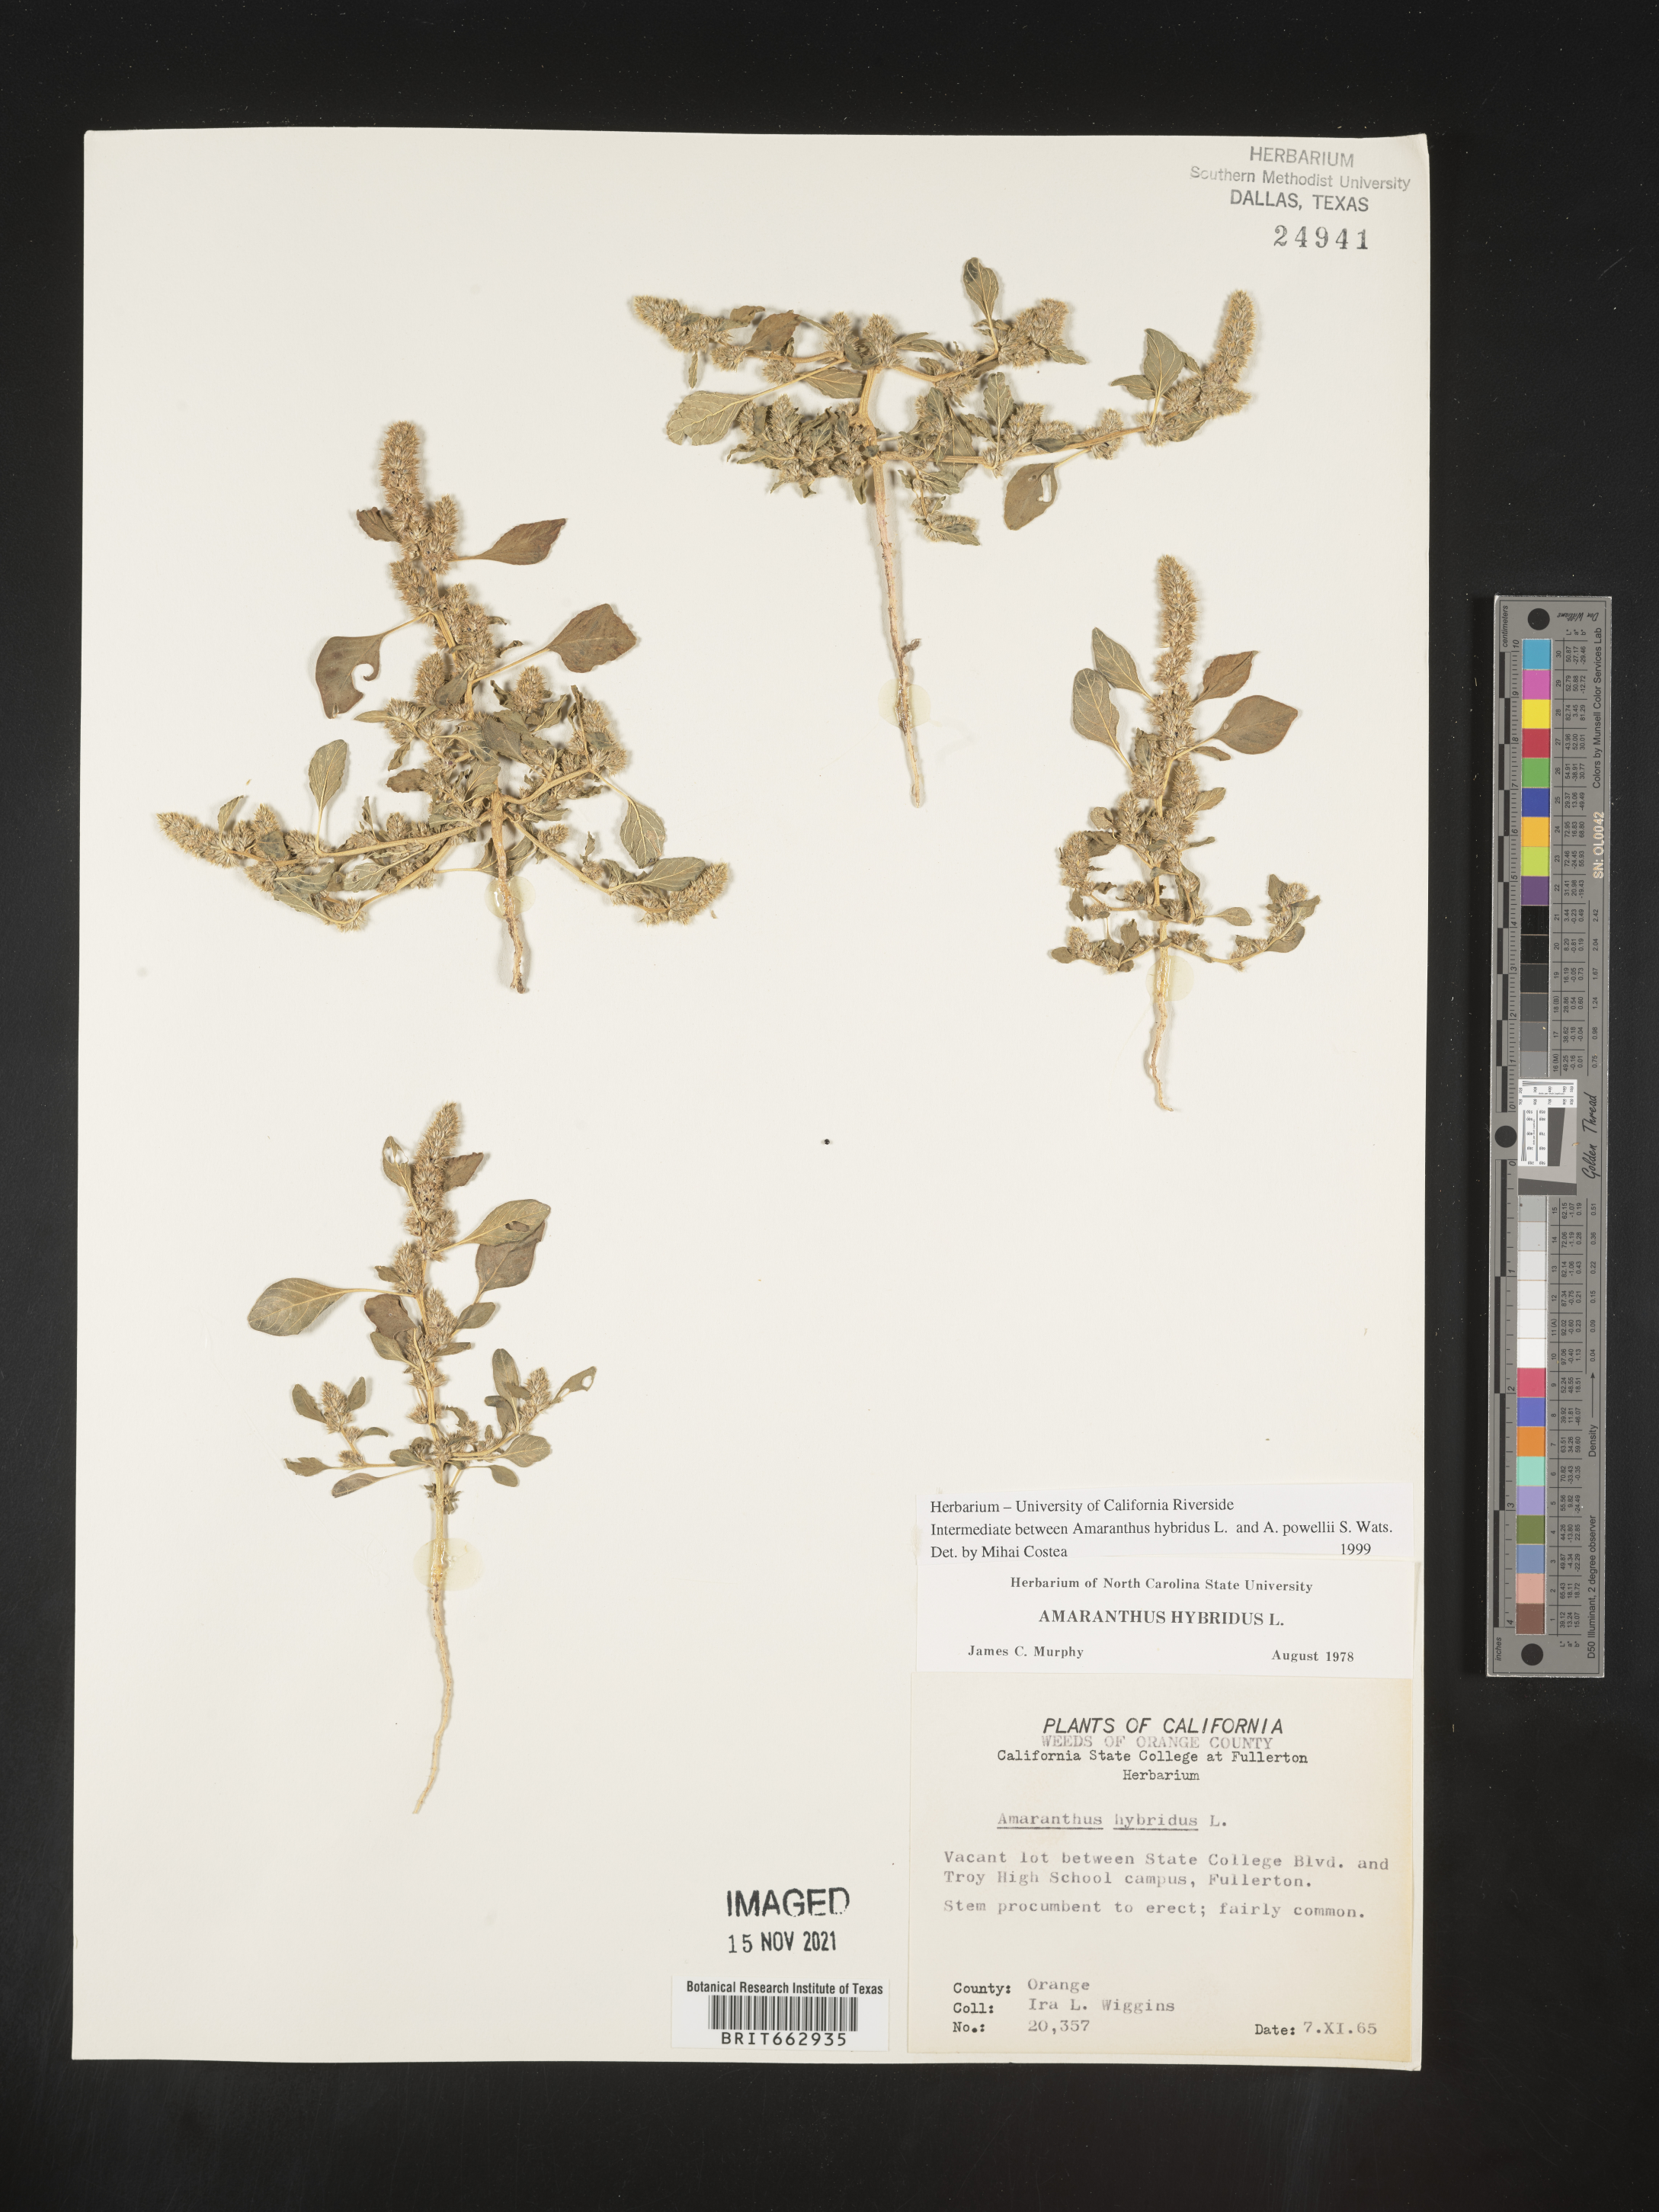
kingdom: Plantae
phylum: Tracheophyta
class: Magnoliopsida
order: Caryophyllales
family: Amaranthaceae
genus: Amaranthus
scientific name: Amaranthus hybridus
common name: Green amaranth
